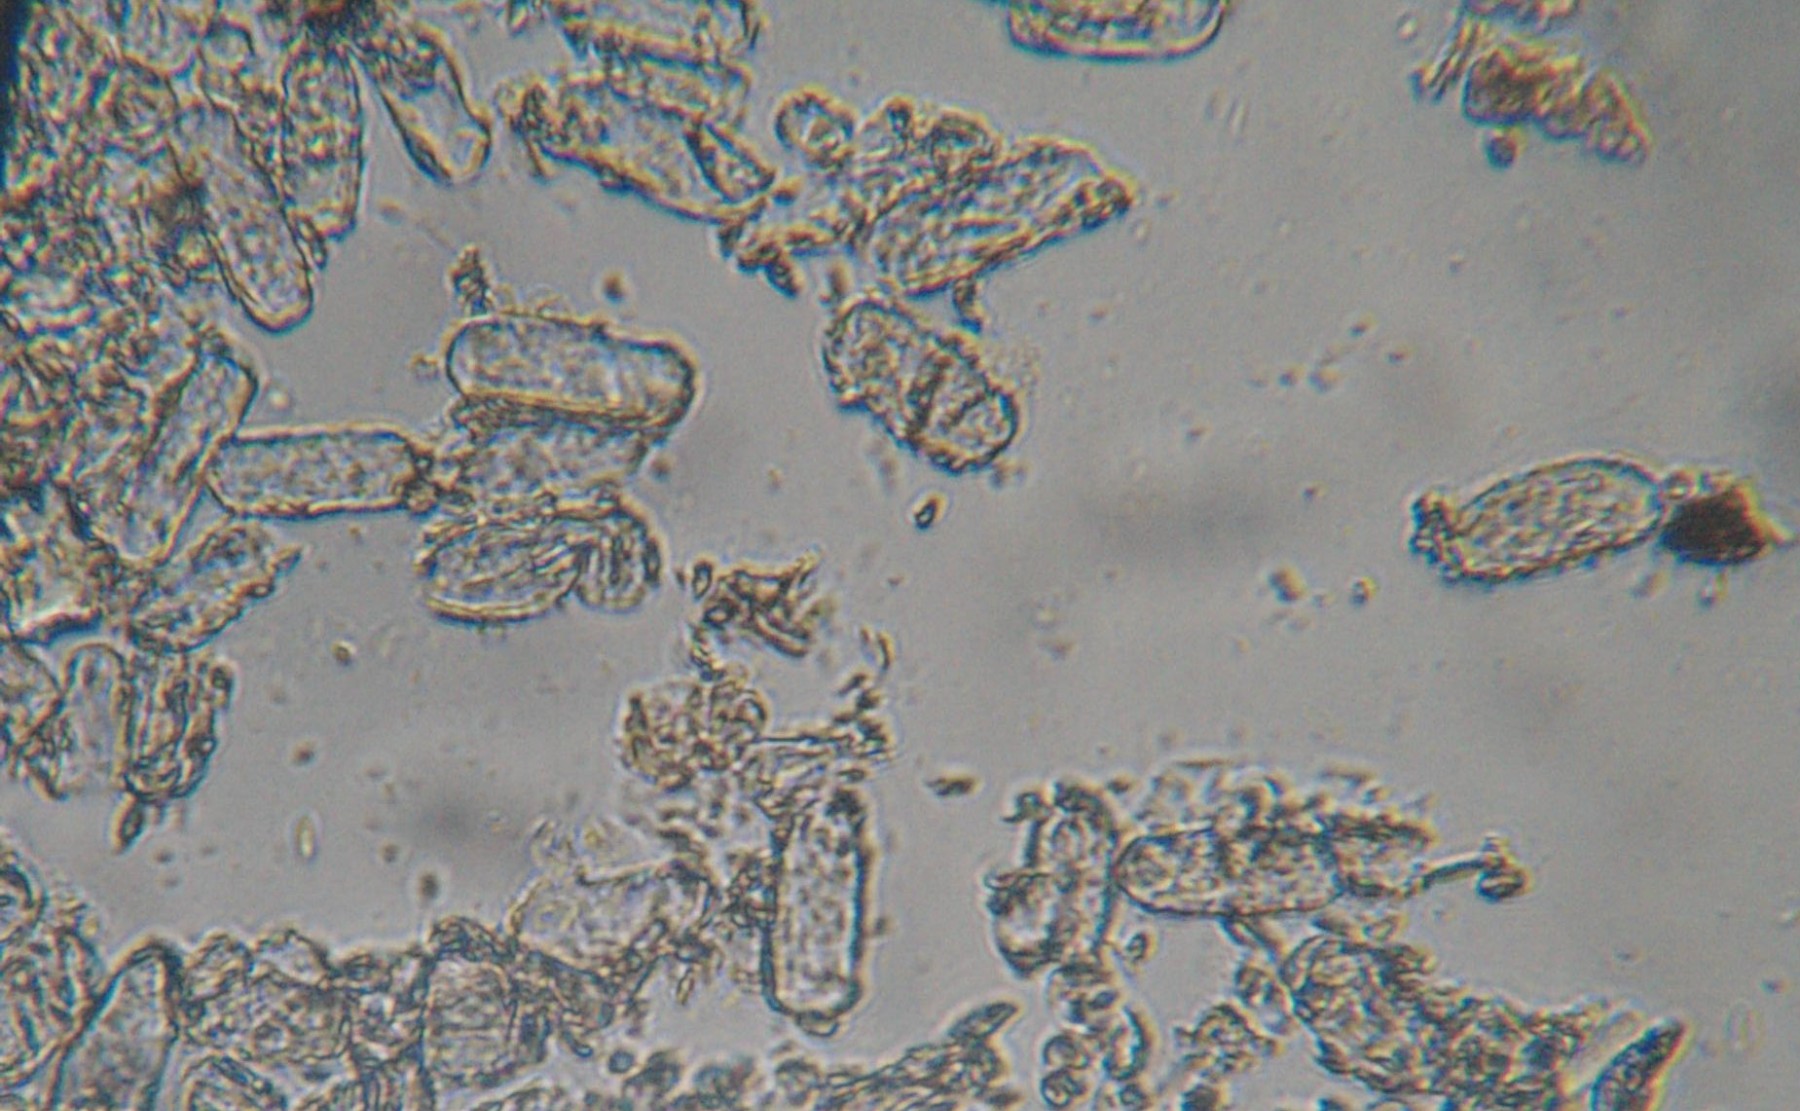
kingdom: Fungi
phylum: Ascomycota
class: Leotiomycetes
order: Helotiales
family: Erysiphaceae
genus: Erysiphe
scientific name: Erysiphe berberidis
